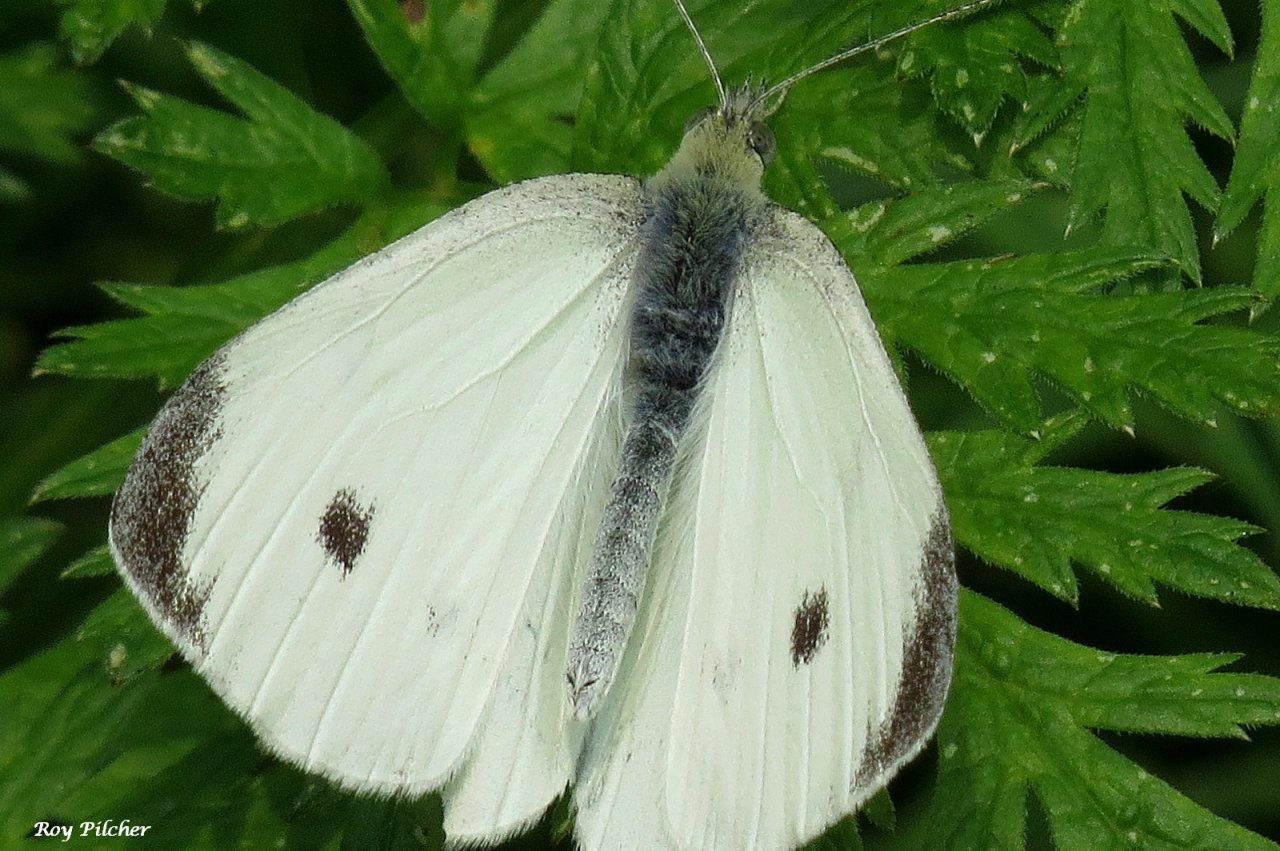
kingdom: Animalia
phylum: Arthropoda
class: Insecta
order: Lepidoptera
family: Pieridae
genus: Pieris
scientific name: Pieris rapae
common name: Cabbage White
